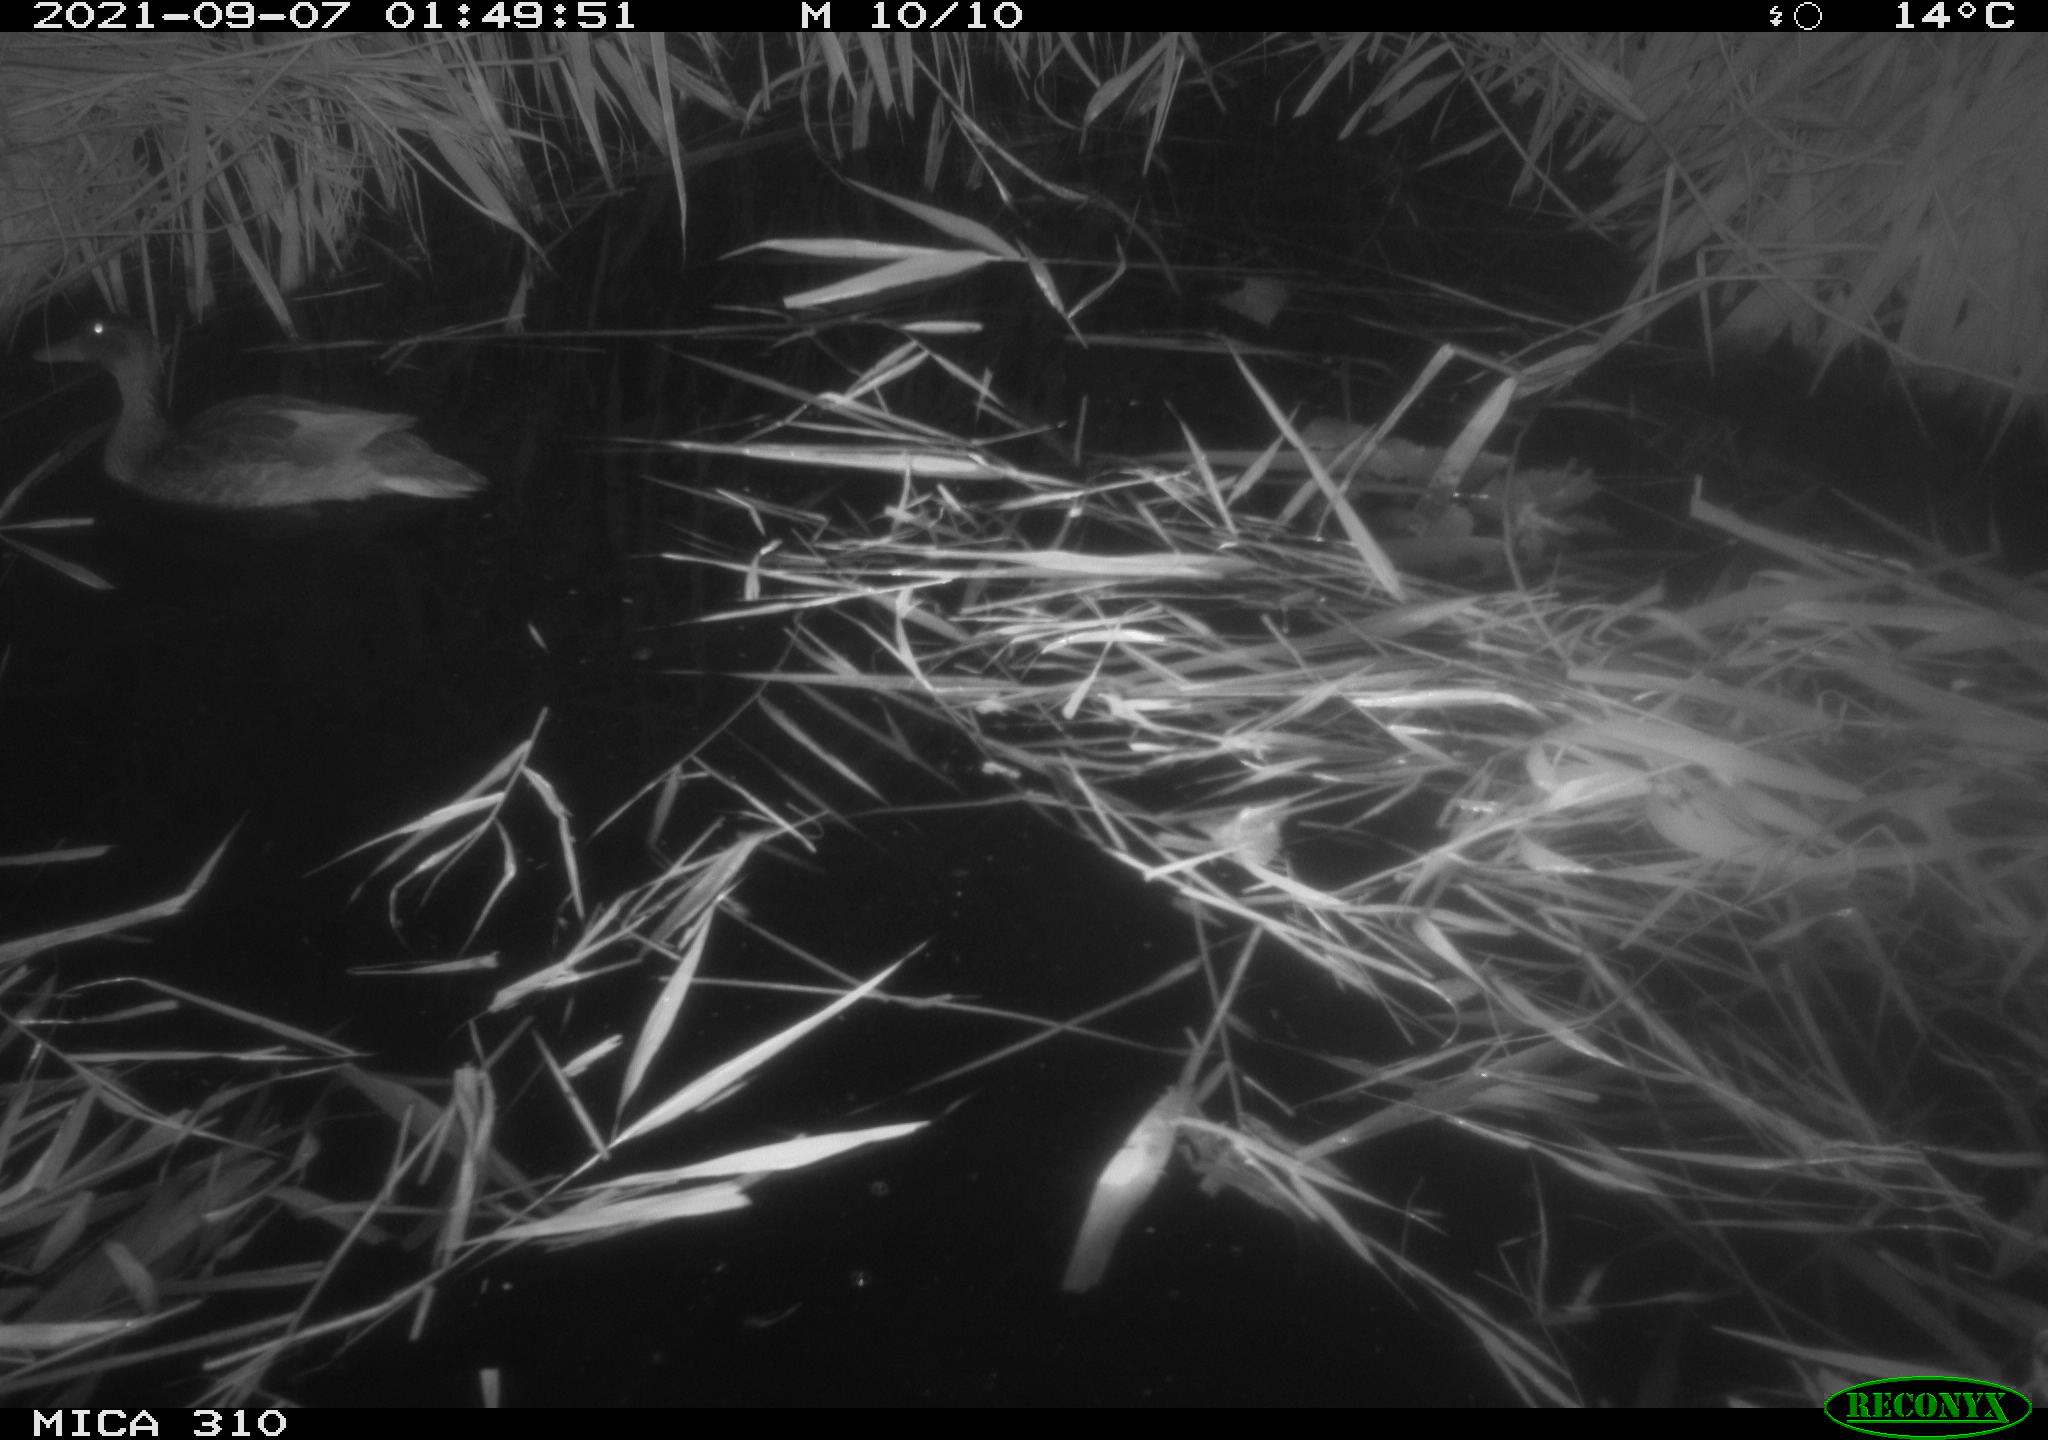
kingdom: Animalia
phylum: Chordata
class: Aves
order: Anseriformes
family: Anatidae
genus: Mareca
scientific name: Mareca strepera
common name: Gadwall
